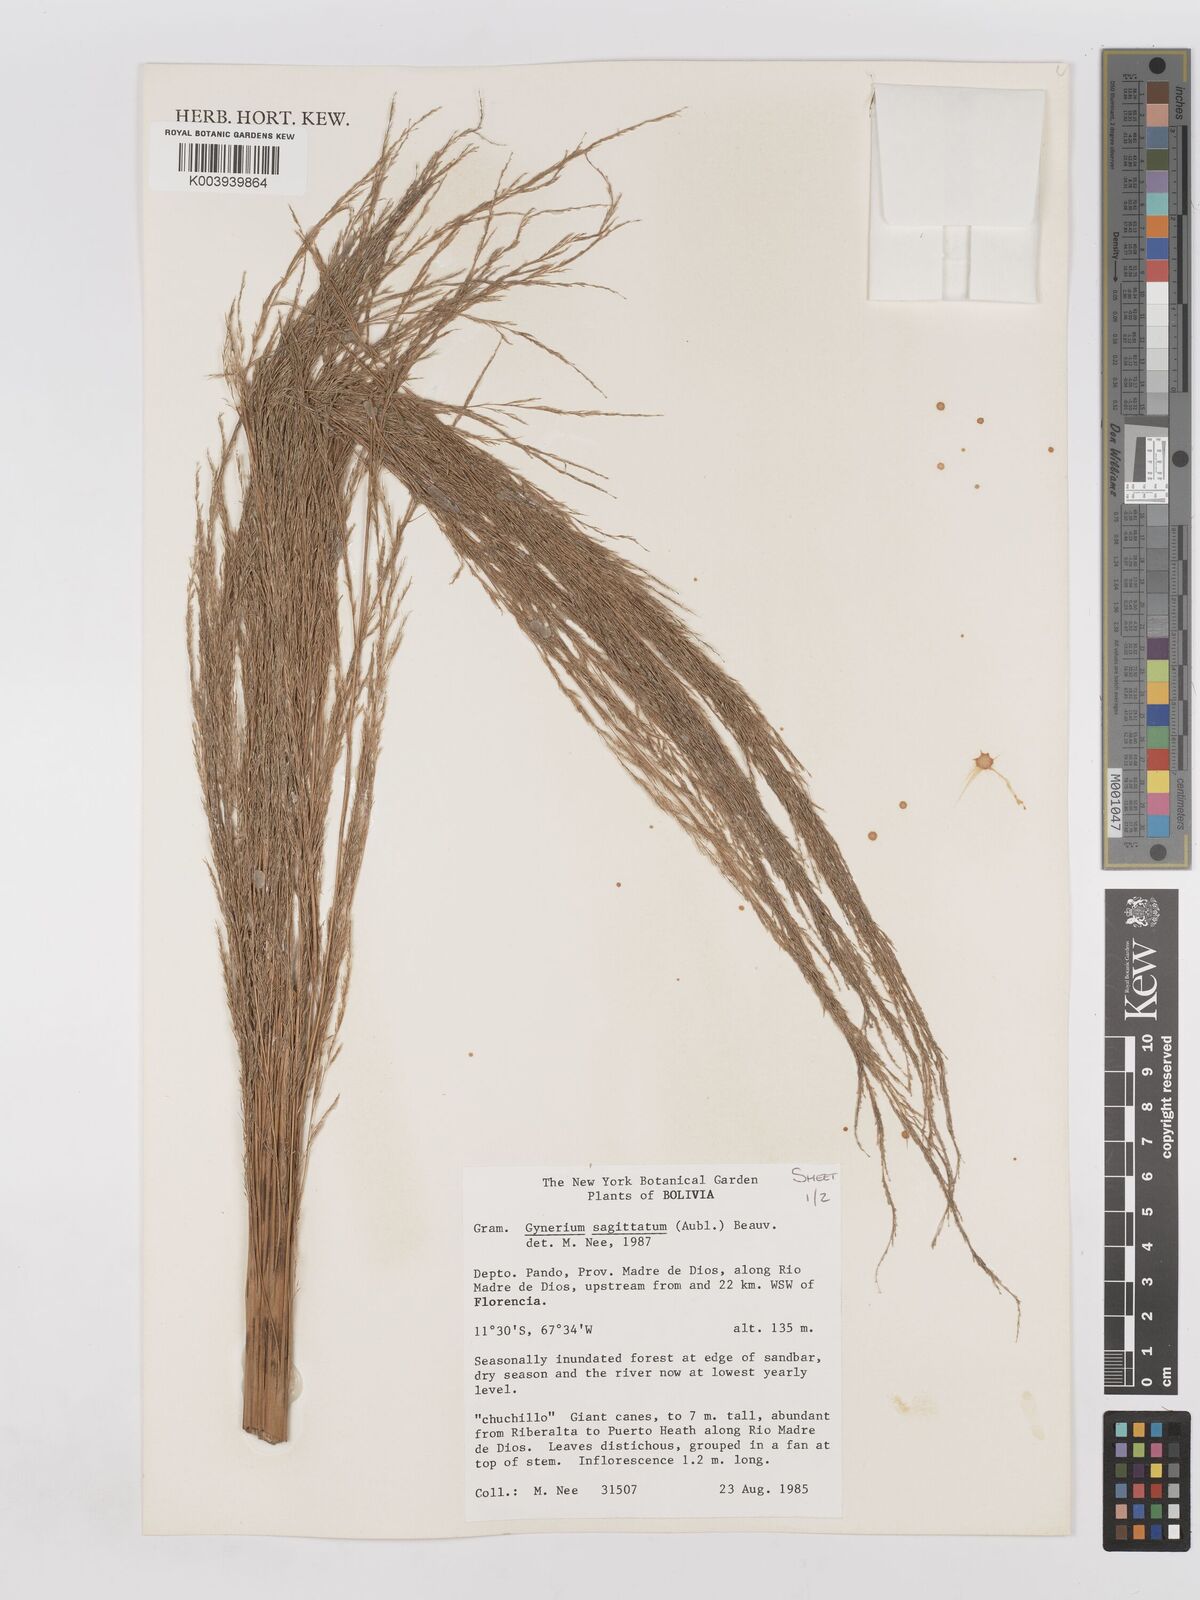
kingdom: Plantae
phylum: Tracheophyta
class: Liliopsida
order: Poales
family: Poaceae
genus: Gynerium
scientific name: Gynerium sagittatum
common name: Wild cane
